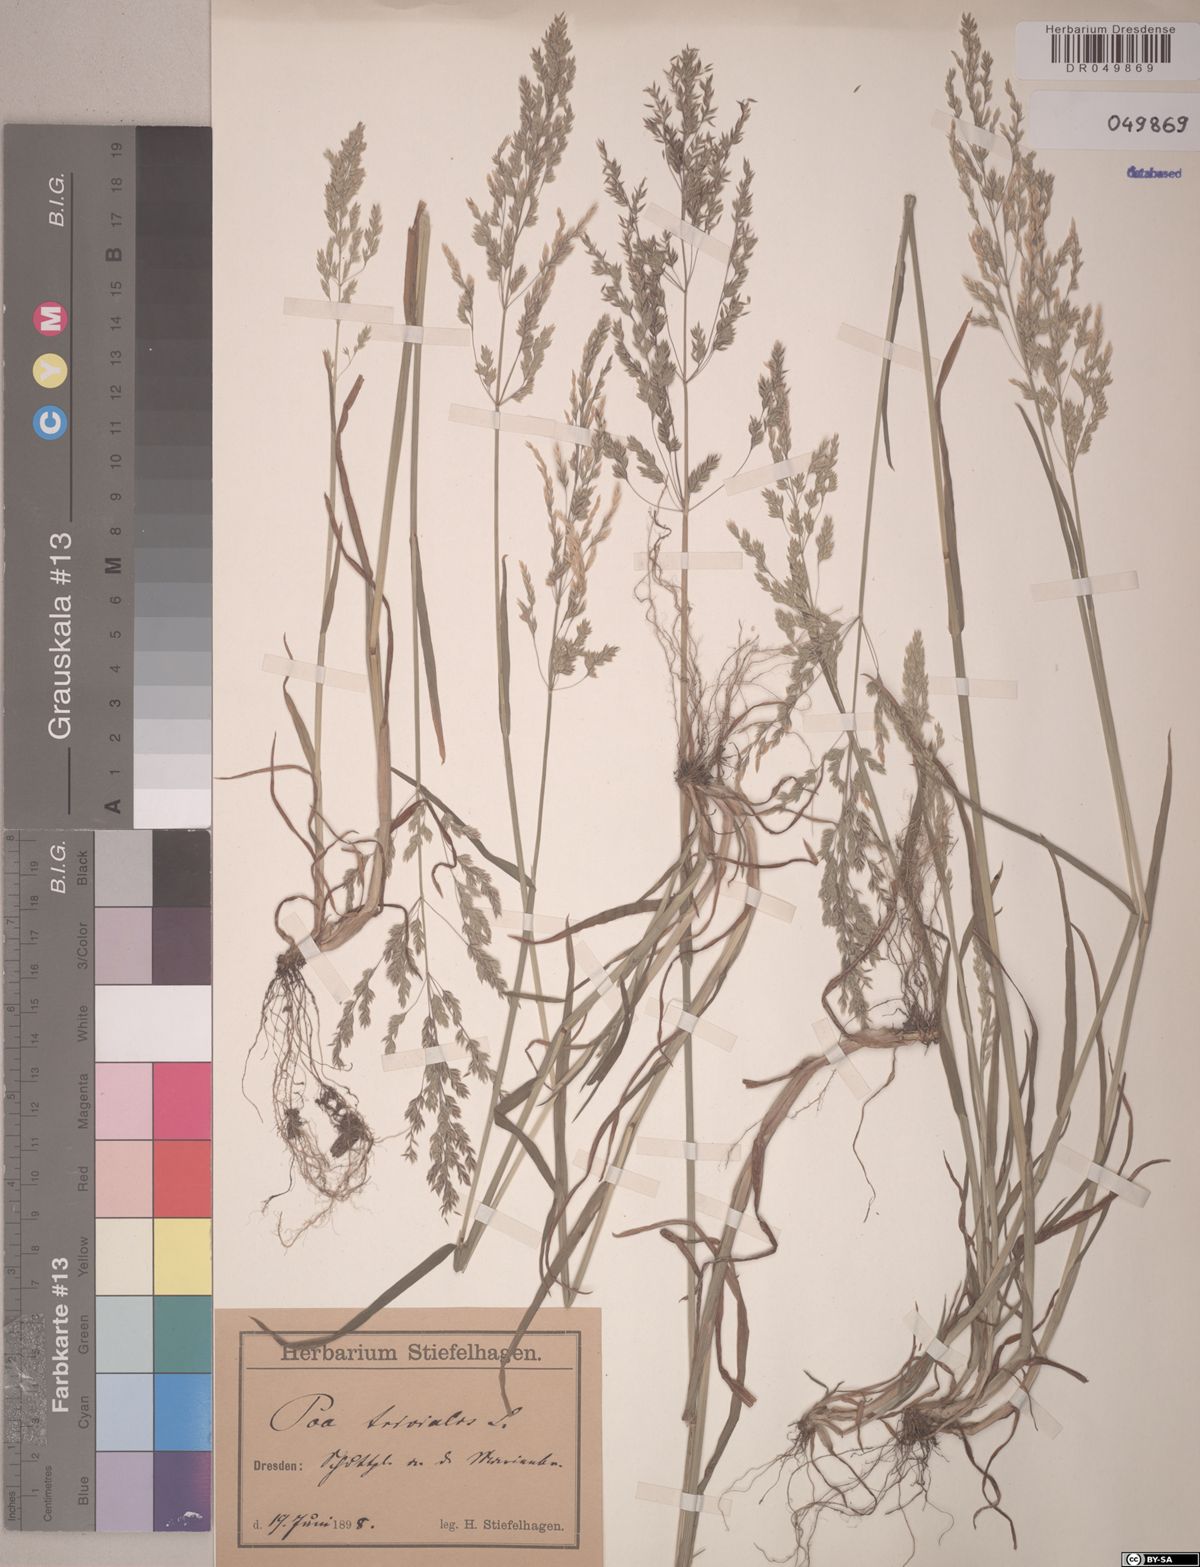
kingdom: Plantae
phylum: Tracheophyta
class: Liliopsida
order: Poales
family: Poaceae
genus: Poa
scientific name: Poa trivialis
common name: Rough bluegrass
